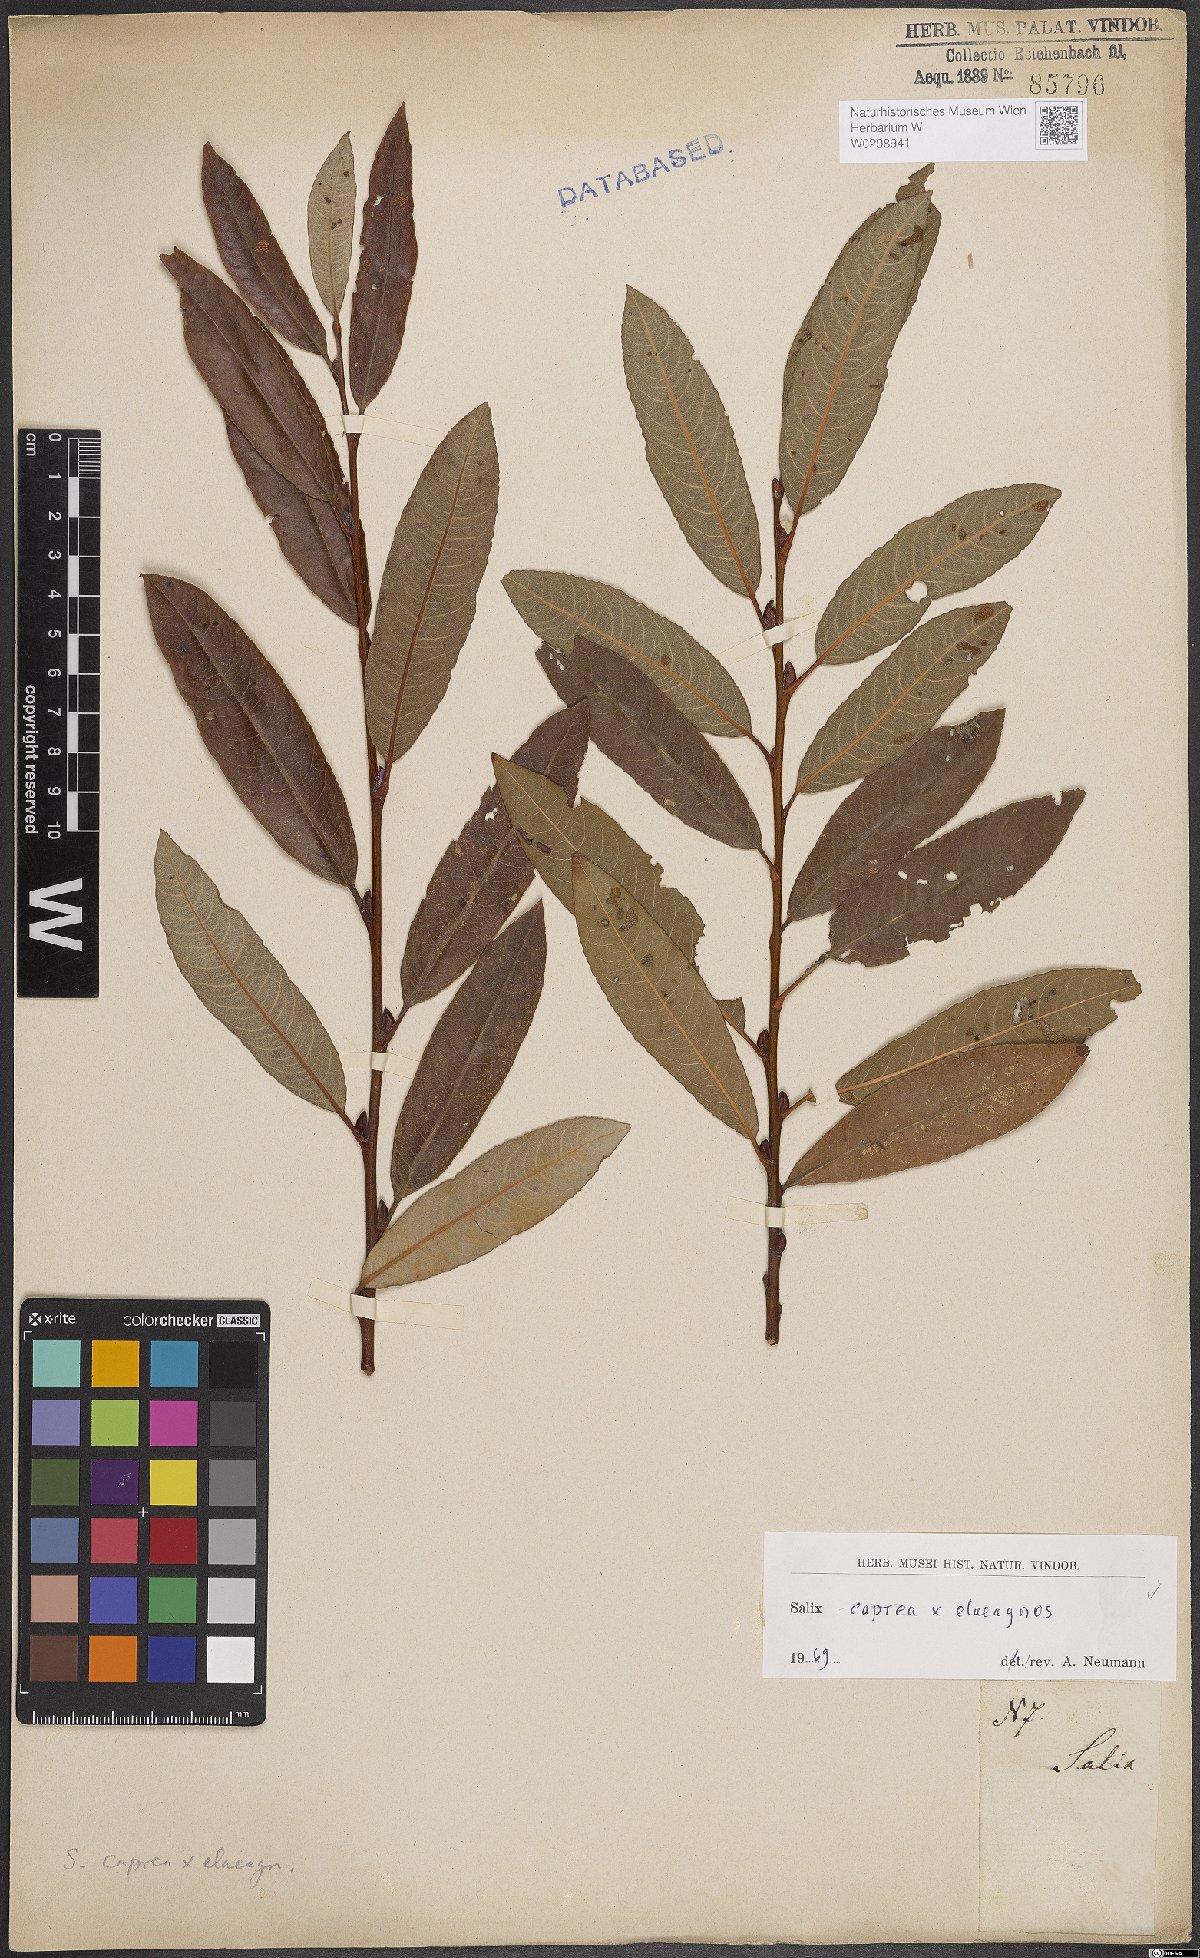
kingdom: Plantae
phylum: Tracheophyta
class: Magnoliopsida
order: Malpighiales
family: Salicaceae
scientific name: Salicaceae
